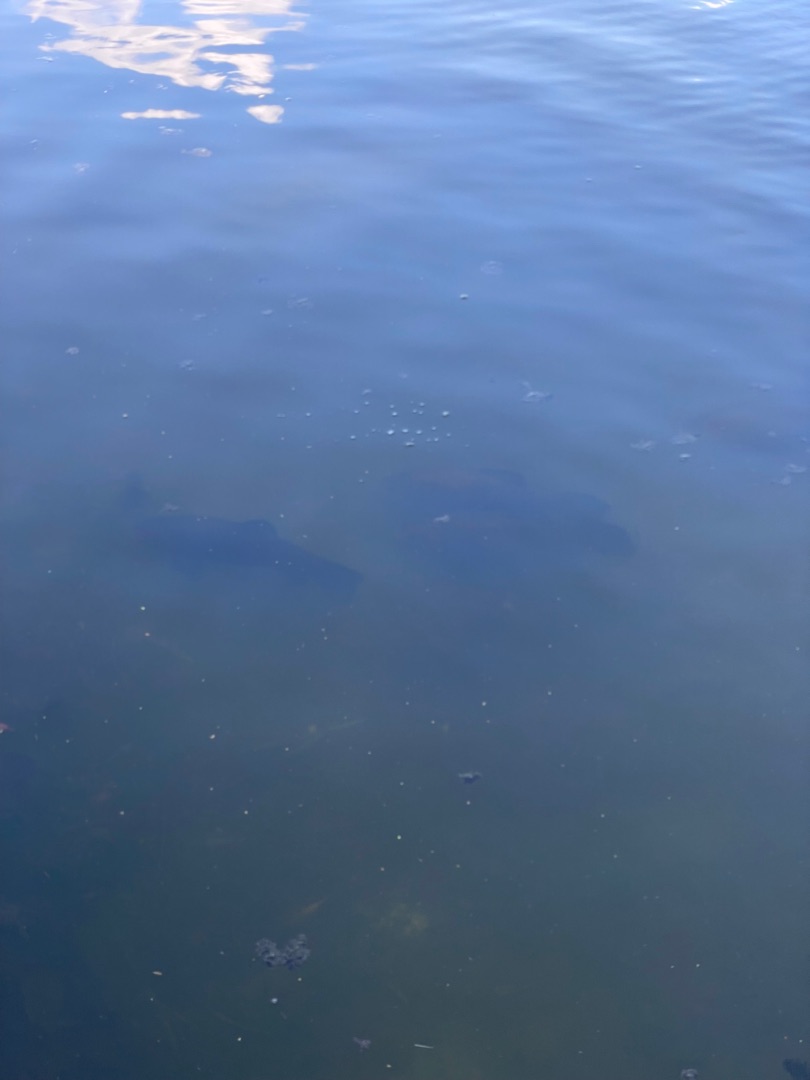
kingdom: Animalia
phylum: Chordata
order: Cypriniformes
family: Cyprinidae
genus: Tinca
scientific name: Tinca tinca
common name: Suder
